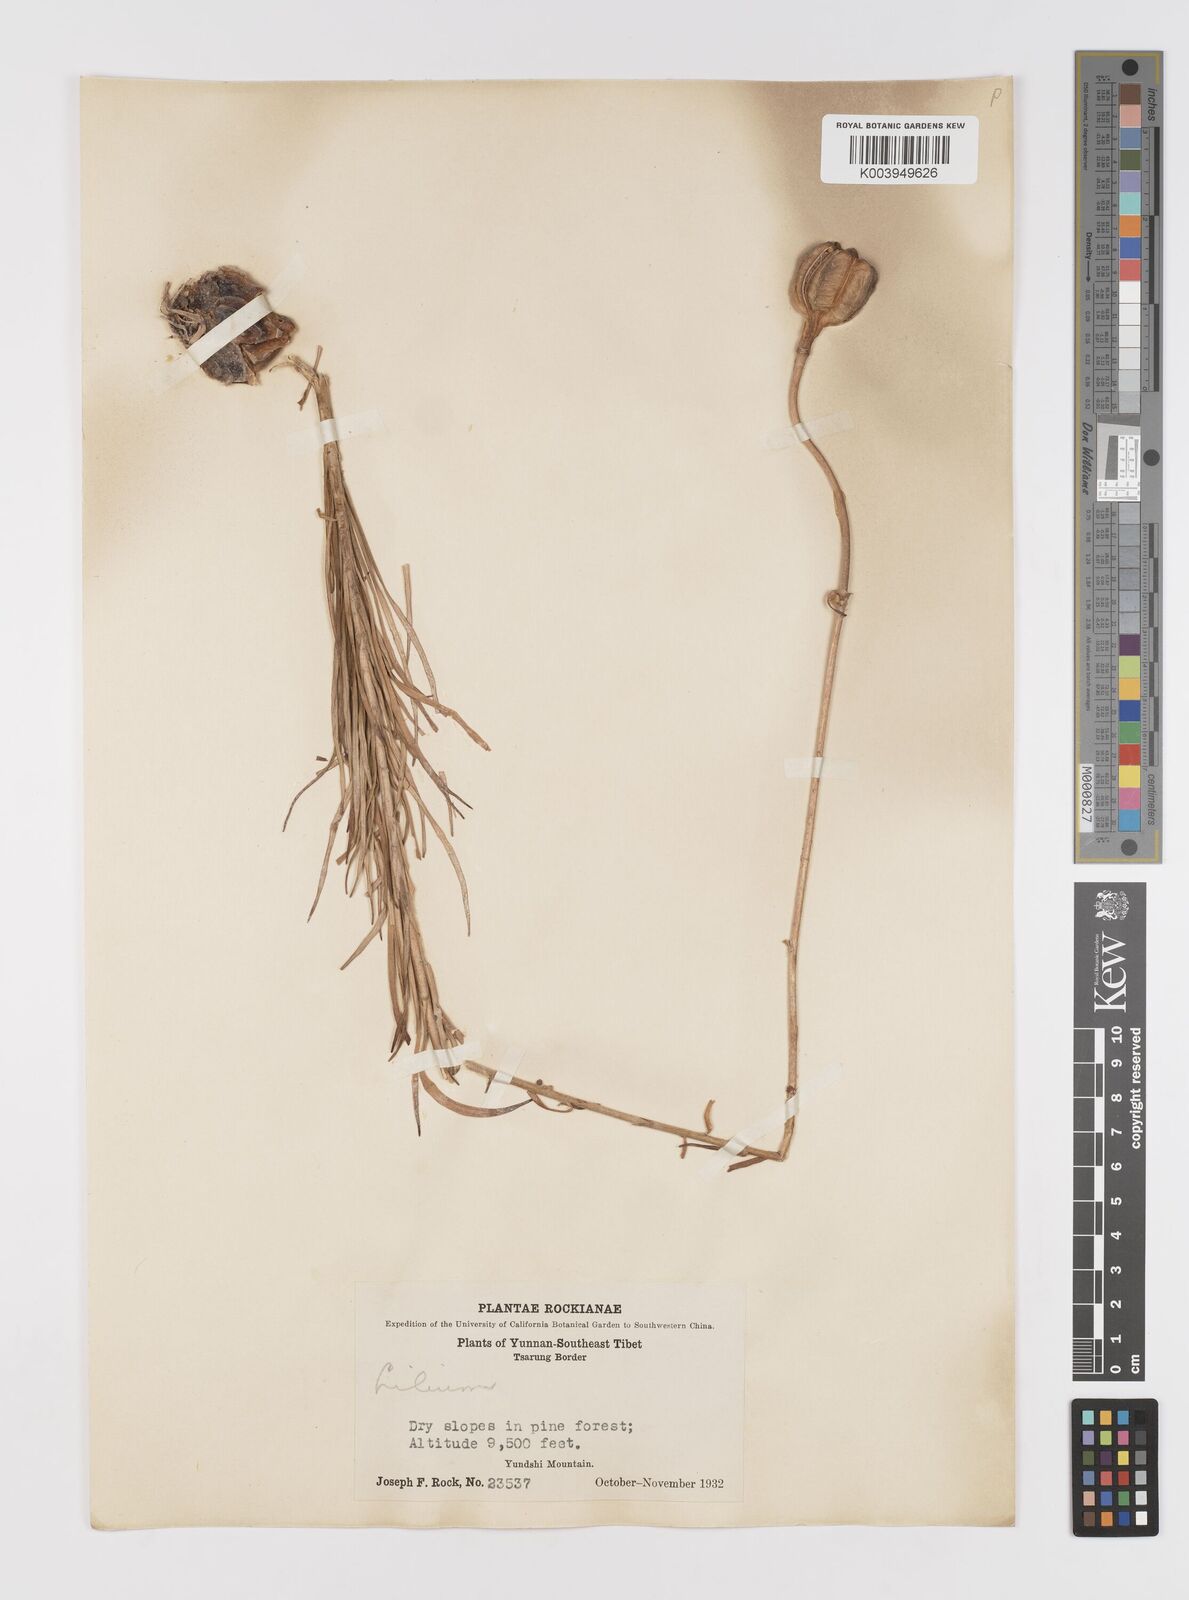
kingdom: Plantae
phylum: Tracheophyta
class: Liliopsida
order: Liliales
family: Liliaceae
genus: Lilium
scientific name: Lilium
